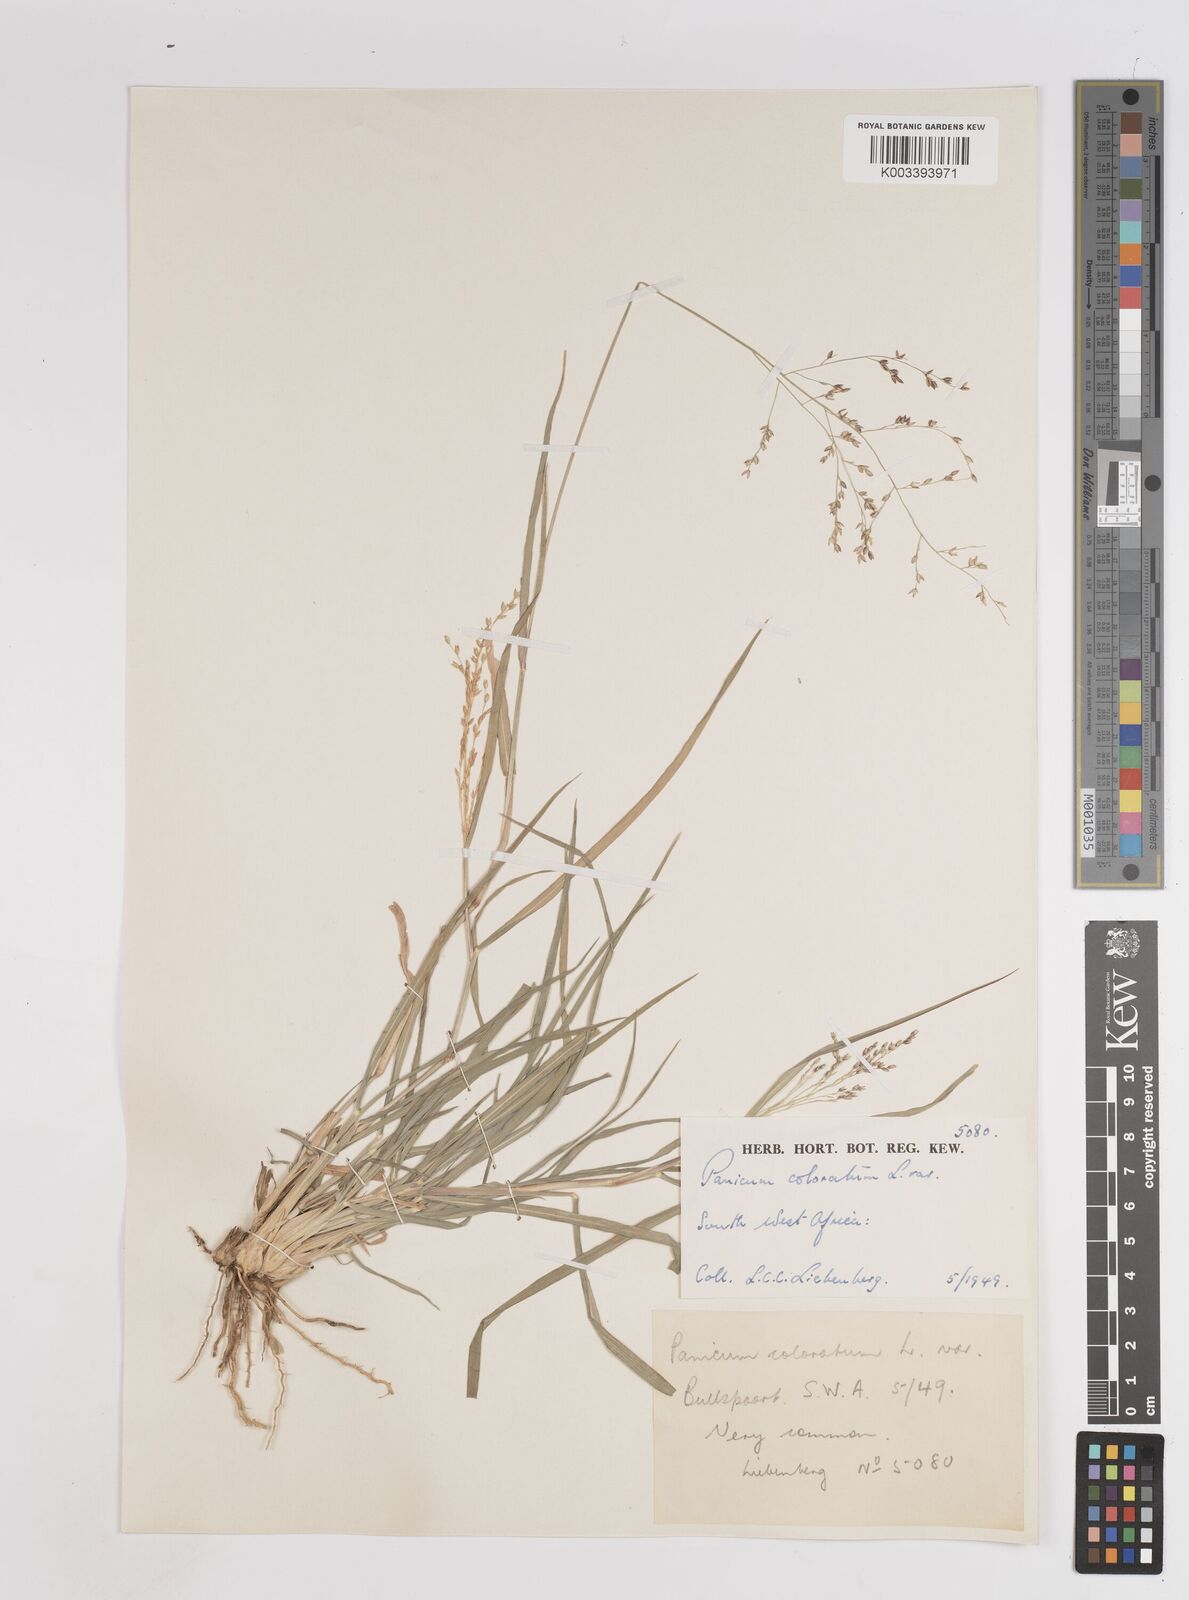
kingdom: Plantae
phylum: Tracheophyta
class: Liliopsida
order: Poales
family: Poaceae
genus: Panicum
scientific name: Panicum coloratum
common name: Kleingrass
